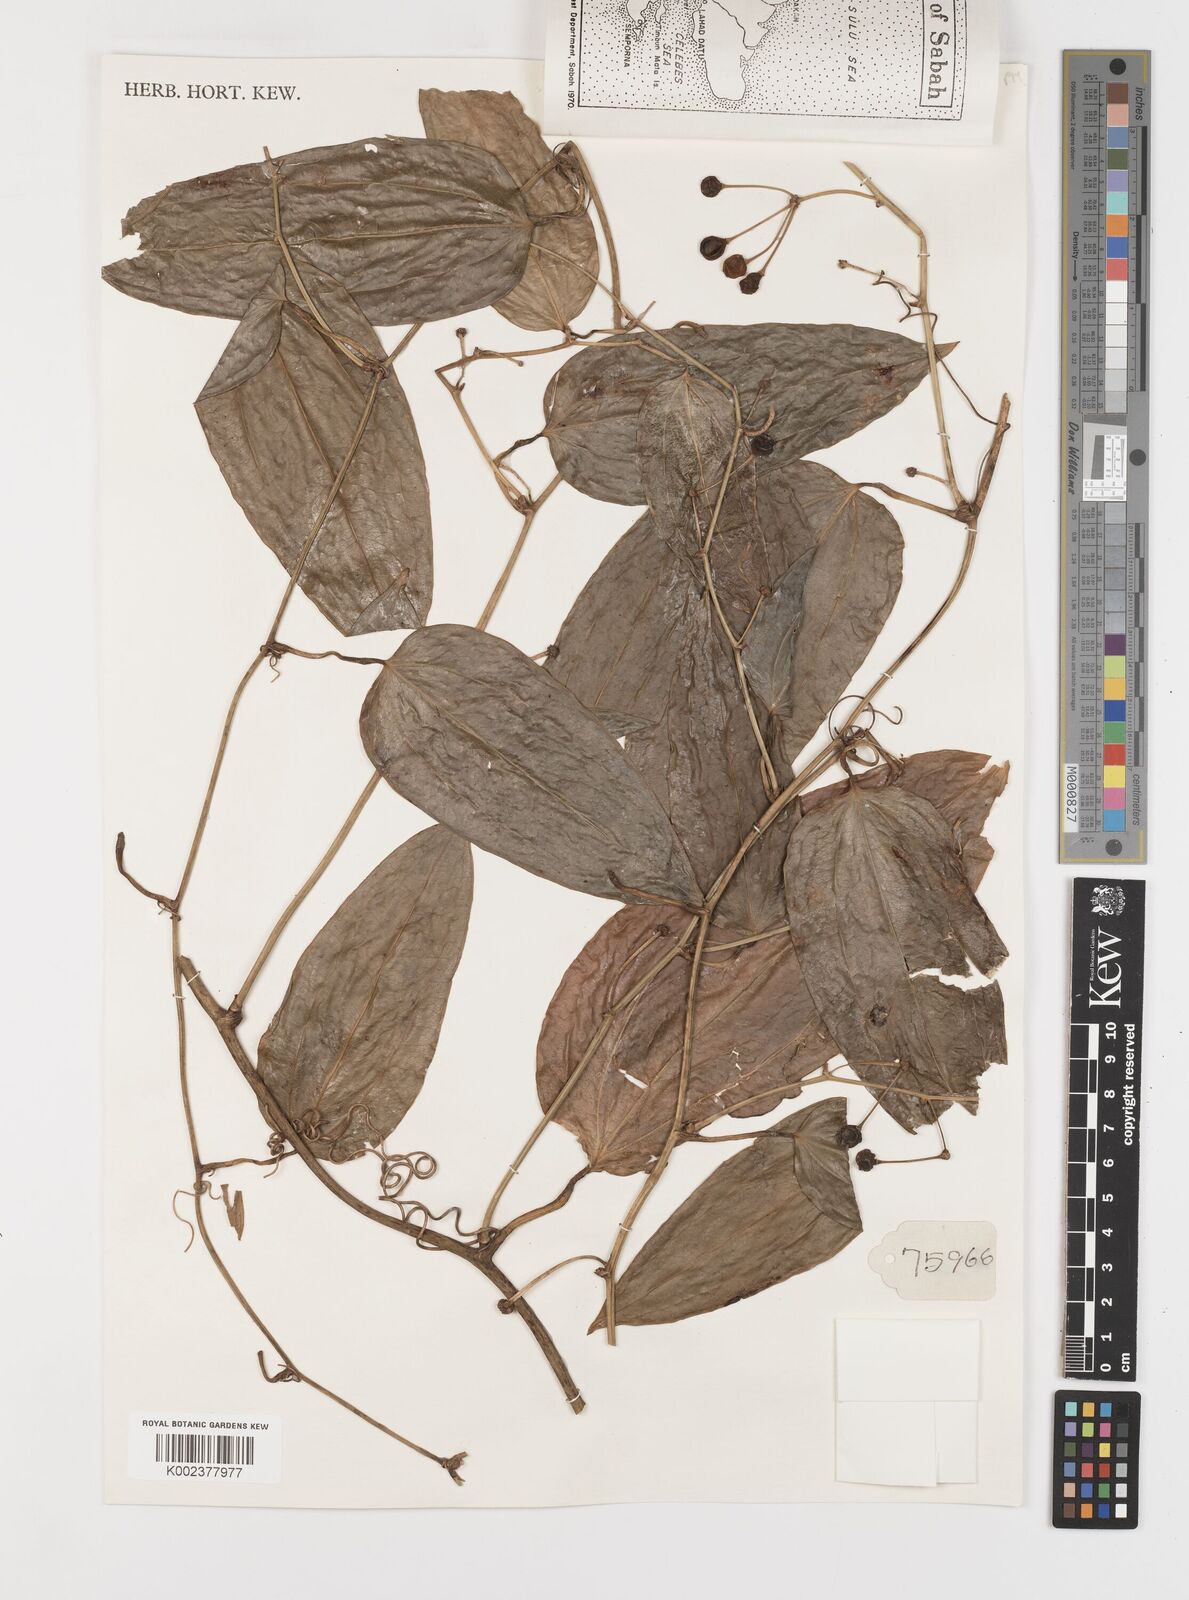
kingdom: Plantae
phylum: Tracheophyta
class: Liliopsida
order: Liliales
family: Smilacaceae
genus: Smilax
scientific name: Smilax
